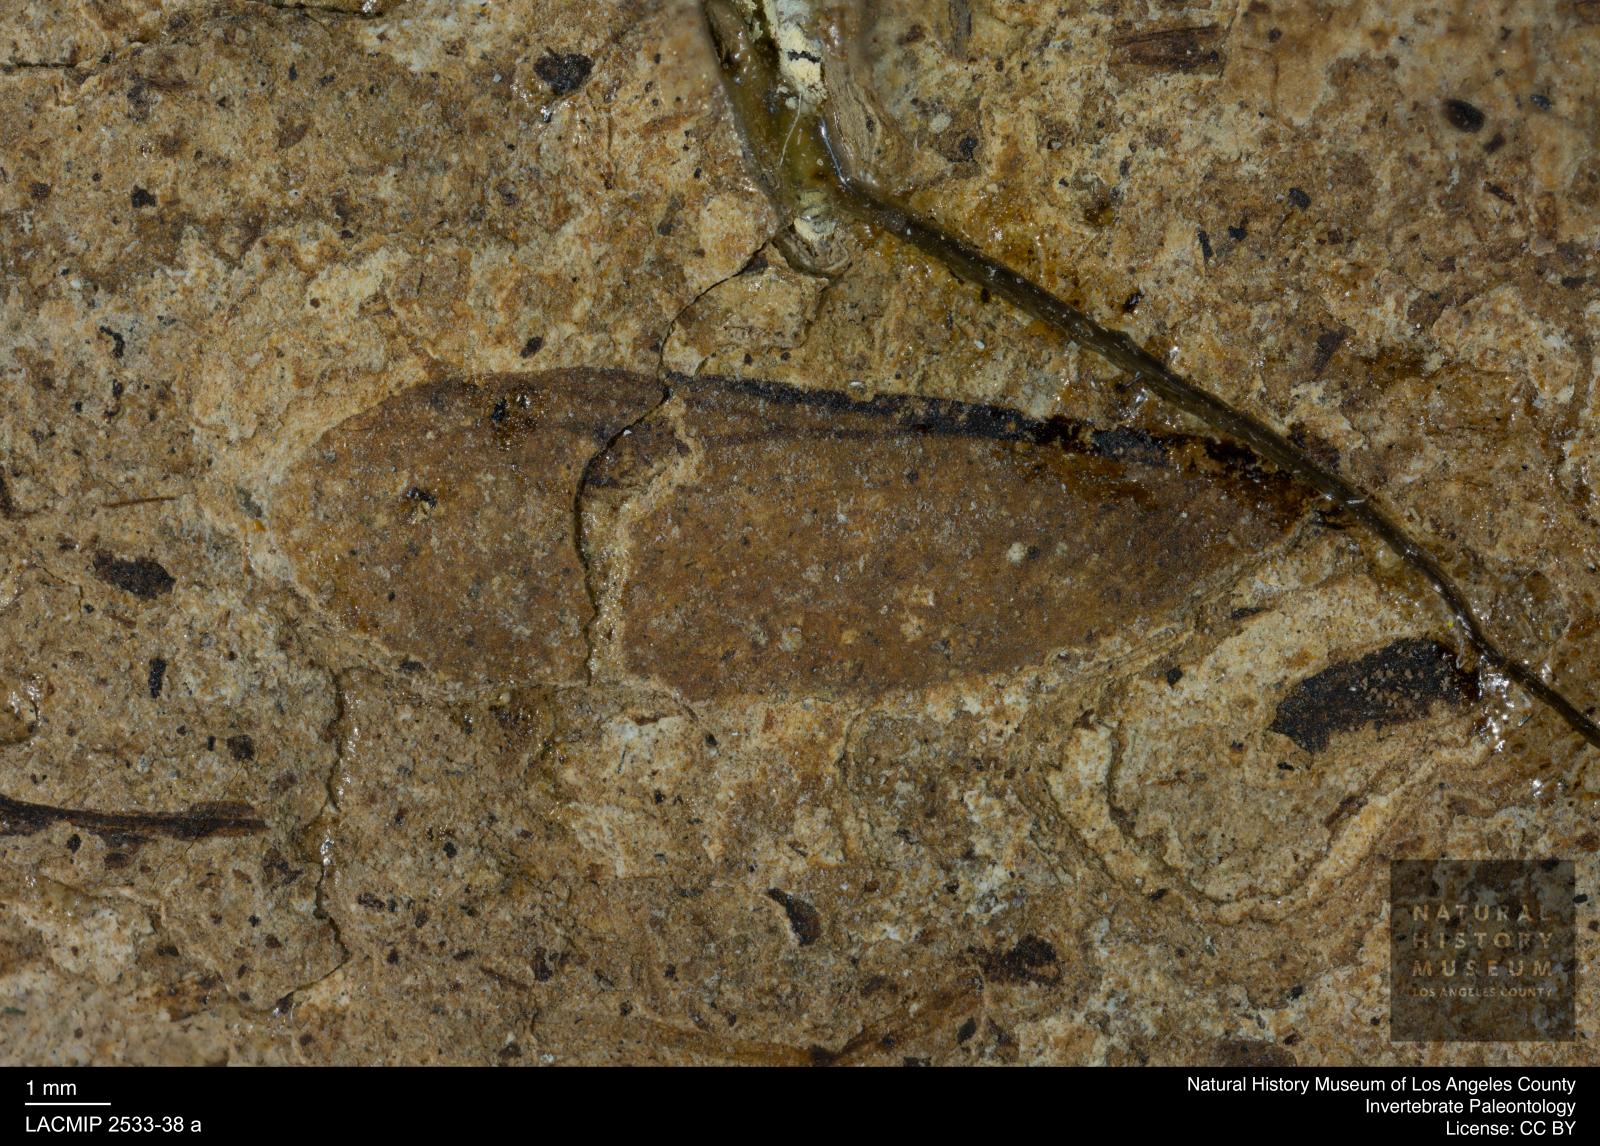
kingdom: Animalia
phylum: Arthropoda
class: Insecta
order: Blattodea
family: Hodotermitidae
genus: Ulmeriella
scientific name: Ulmeriella bauckhorni
